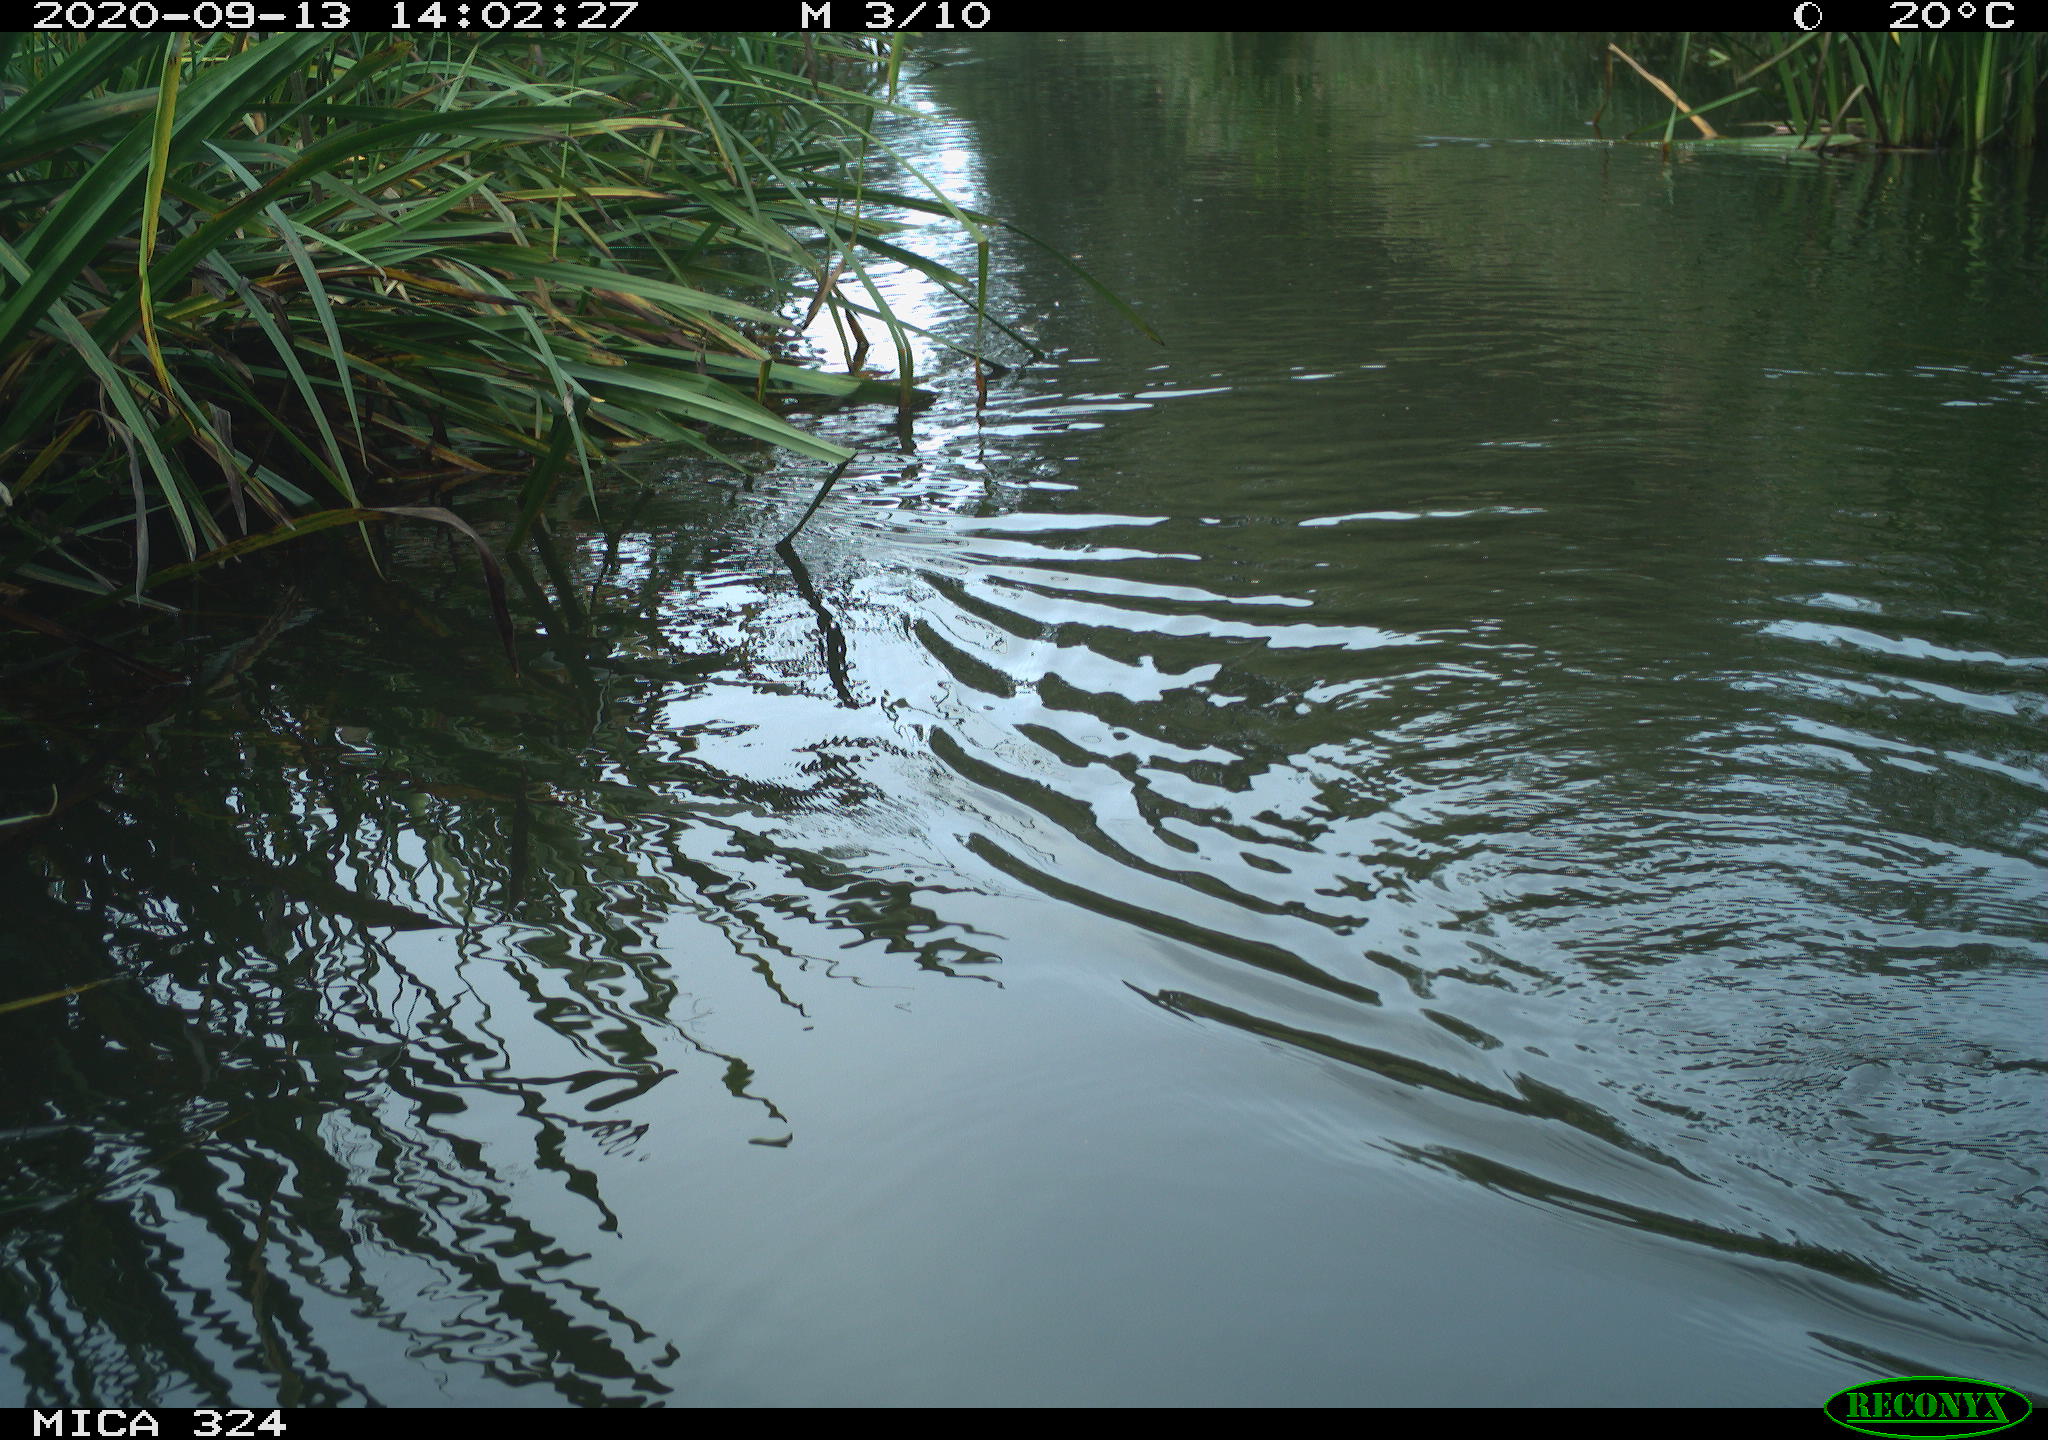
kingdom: Animalia
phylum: Chordata
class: Mammalia
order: Rodentia
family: Cricetidae
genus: Ondatra
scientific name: Ondatra zibethicus
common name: Muskrat
